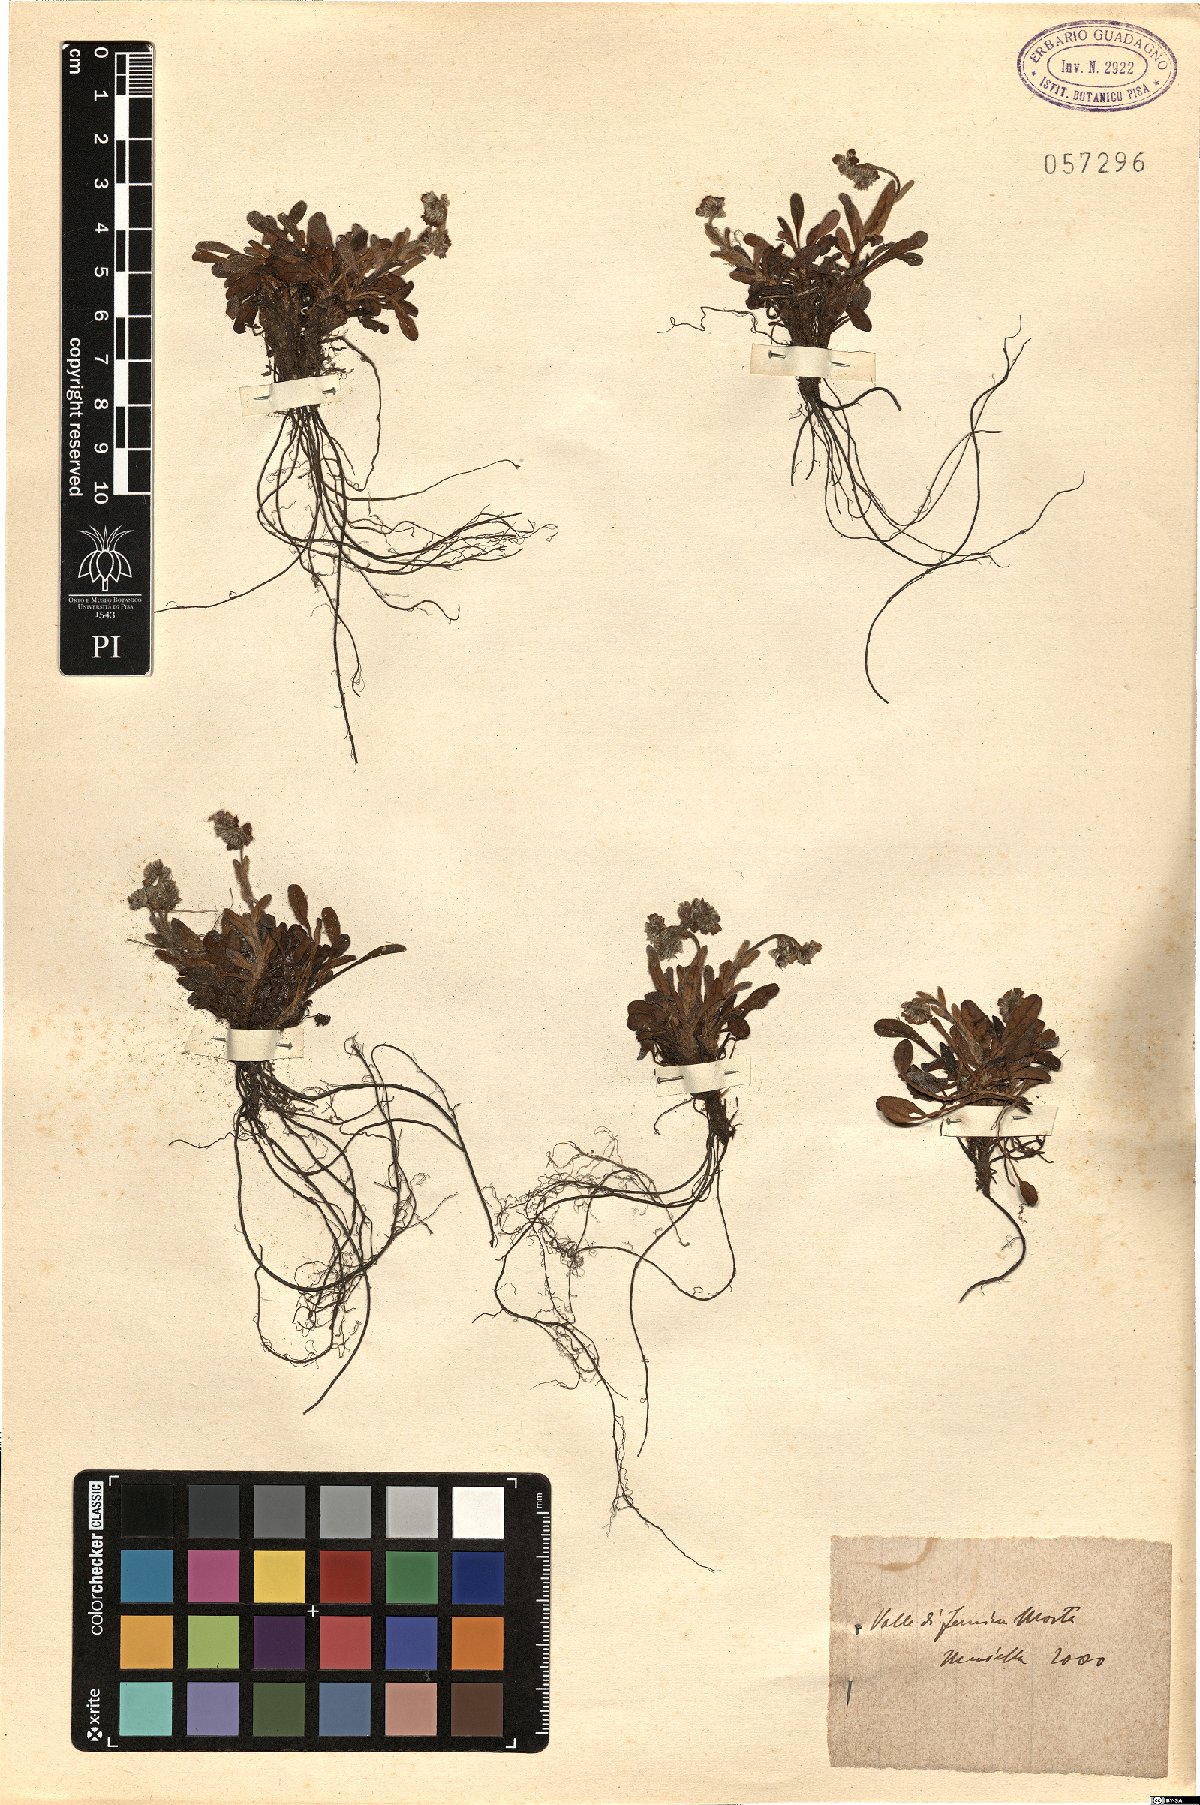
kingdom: Plantae
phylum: Tracheophyta
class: Magnoliopsida
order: Boraginales
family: Boraginaceae
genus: Myosotis
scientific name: Myosotis
